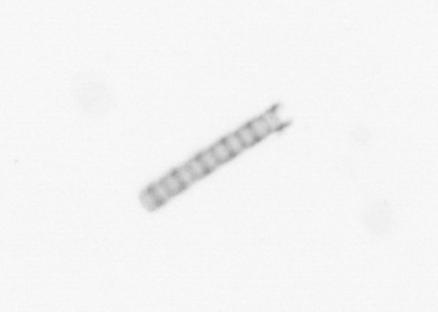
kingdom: Chromista
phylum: Ochrophyta
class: Bacillariophyceae
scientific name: Bacillariophyceae
